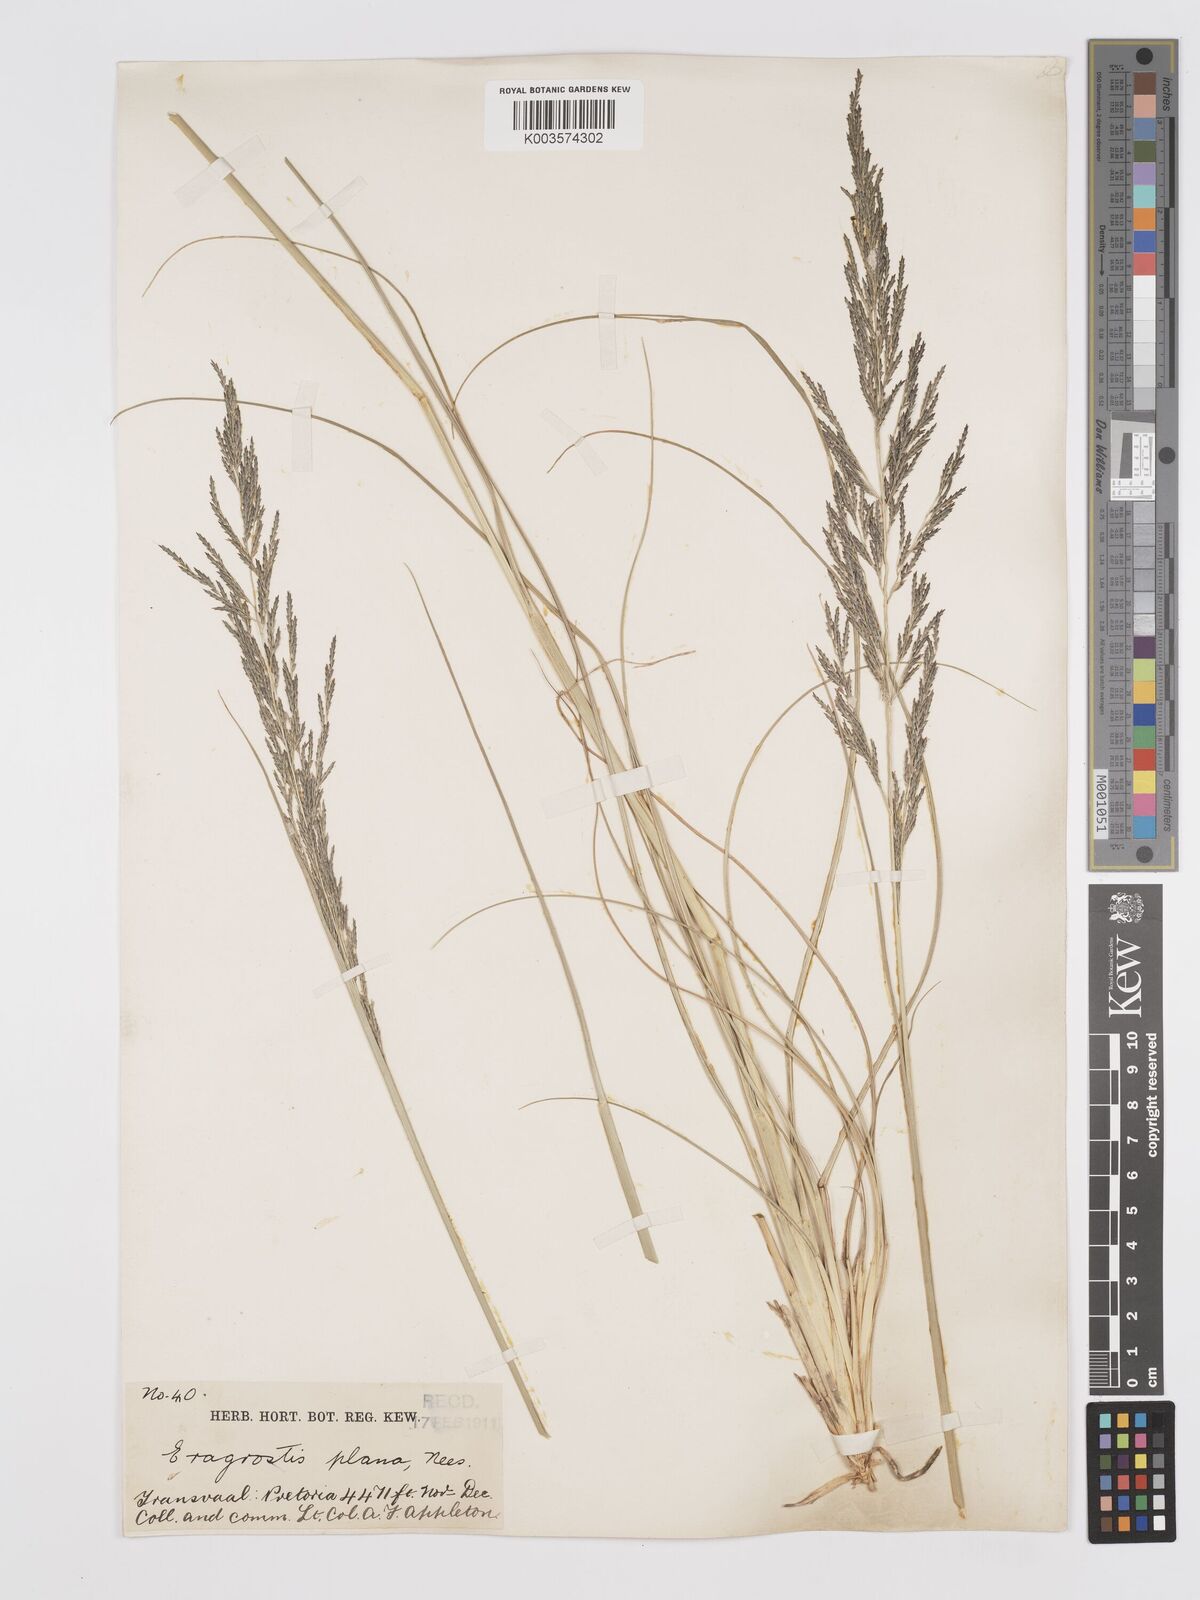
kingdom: Plantae
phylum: Tracheophyta
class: Liliopsida
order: Poales
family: Poaceae
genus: Eragrostis
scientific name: Eragrostis plana
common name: South african lovegrass
